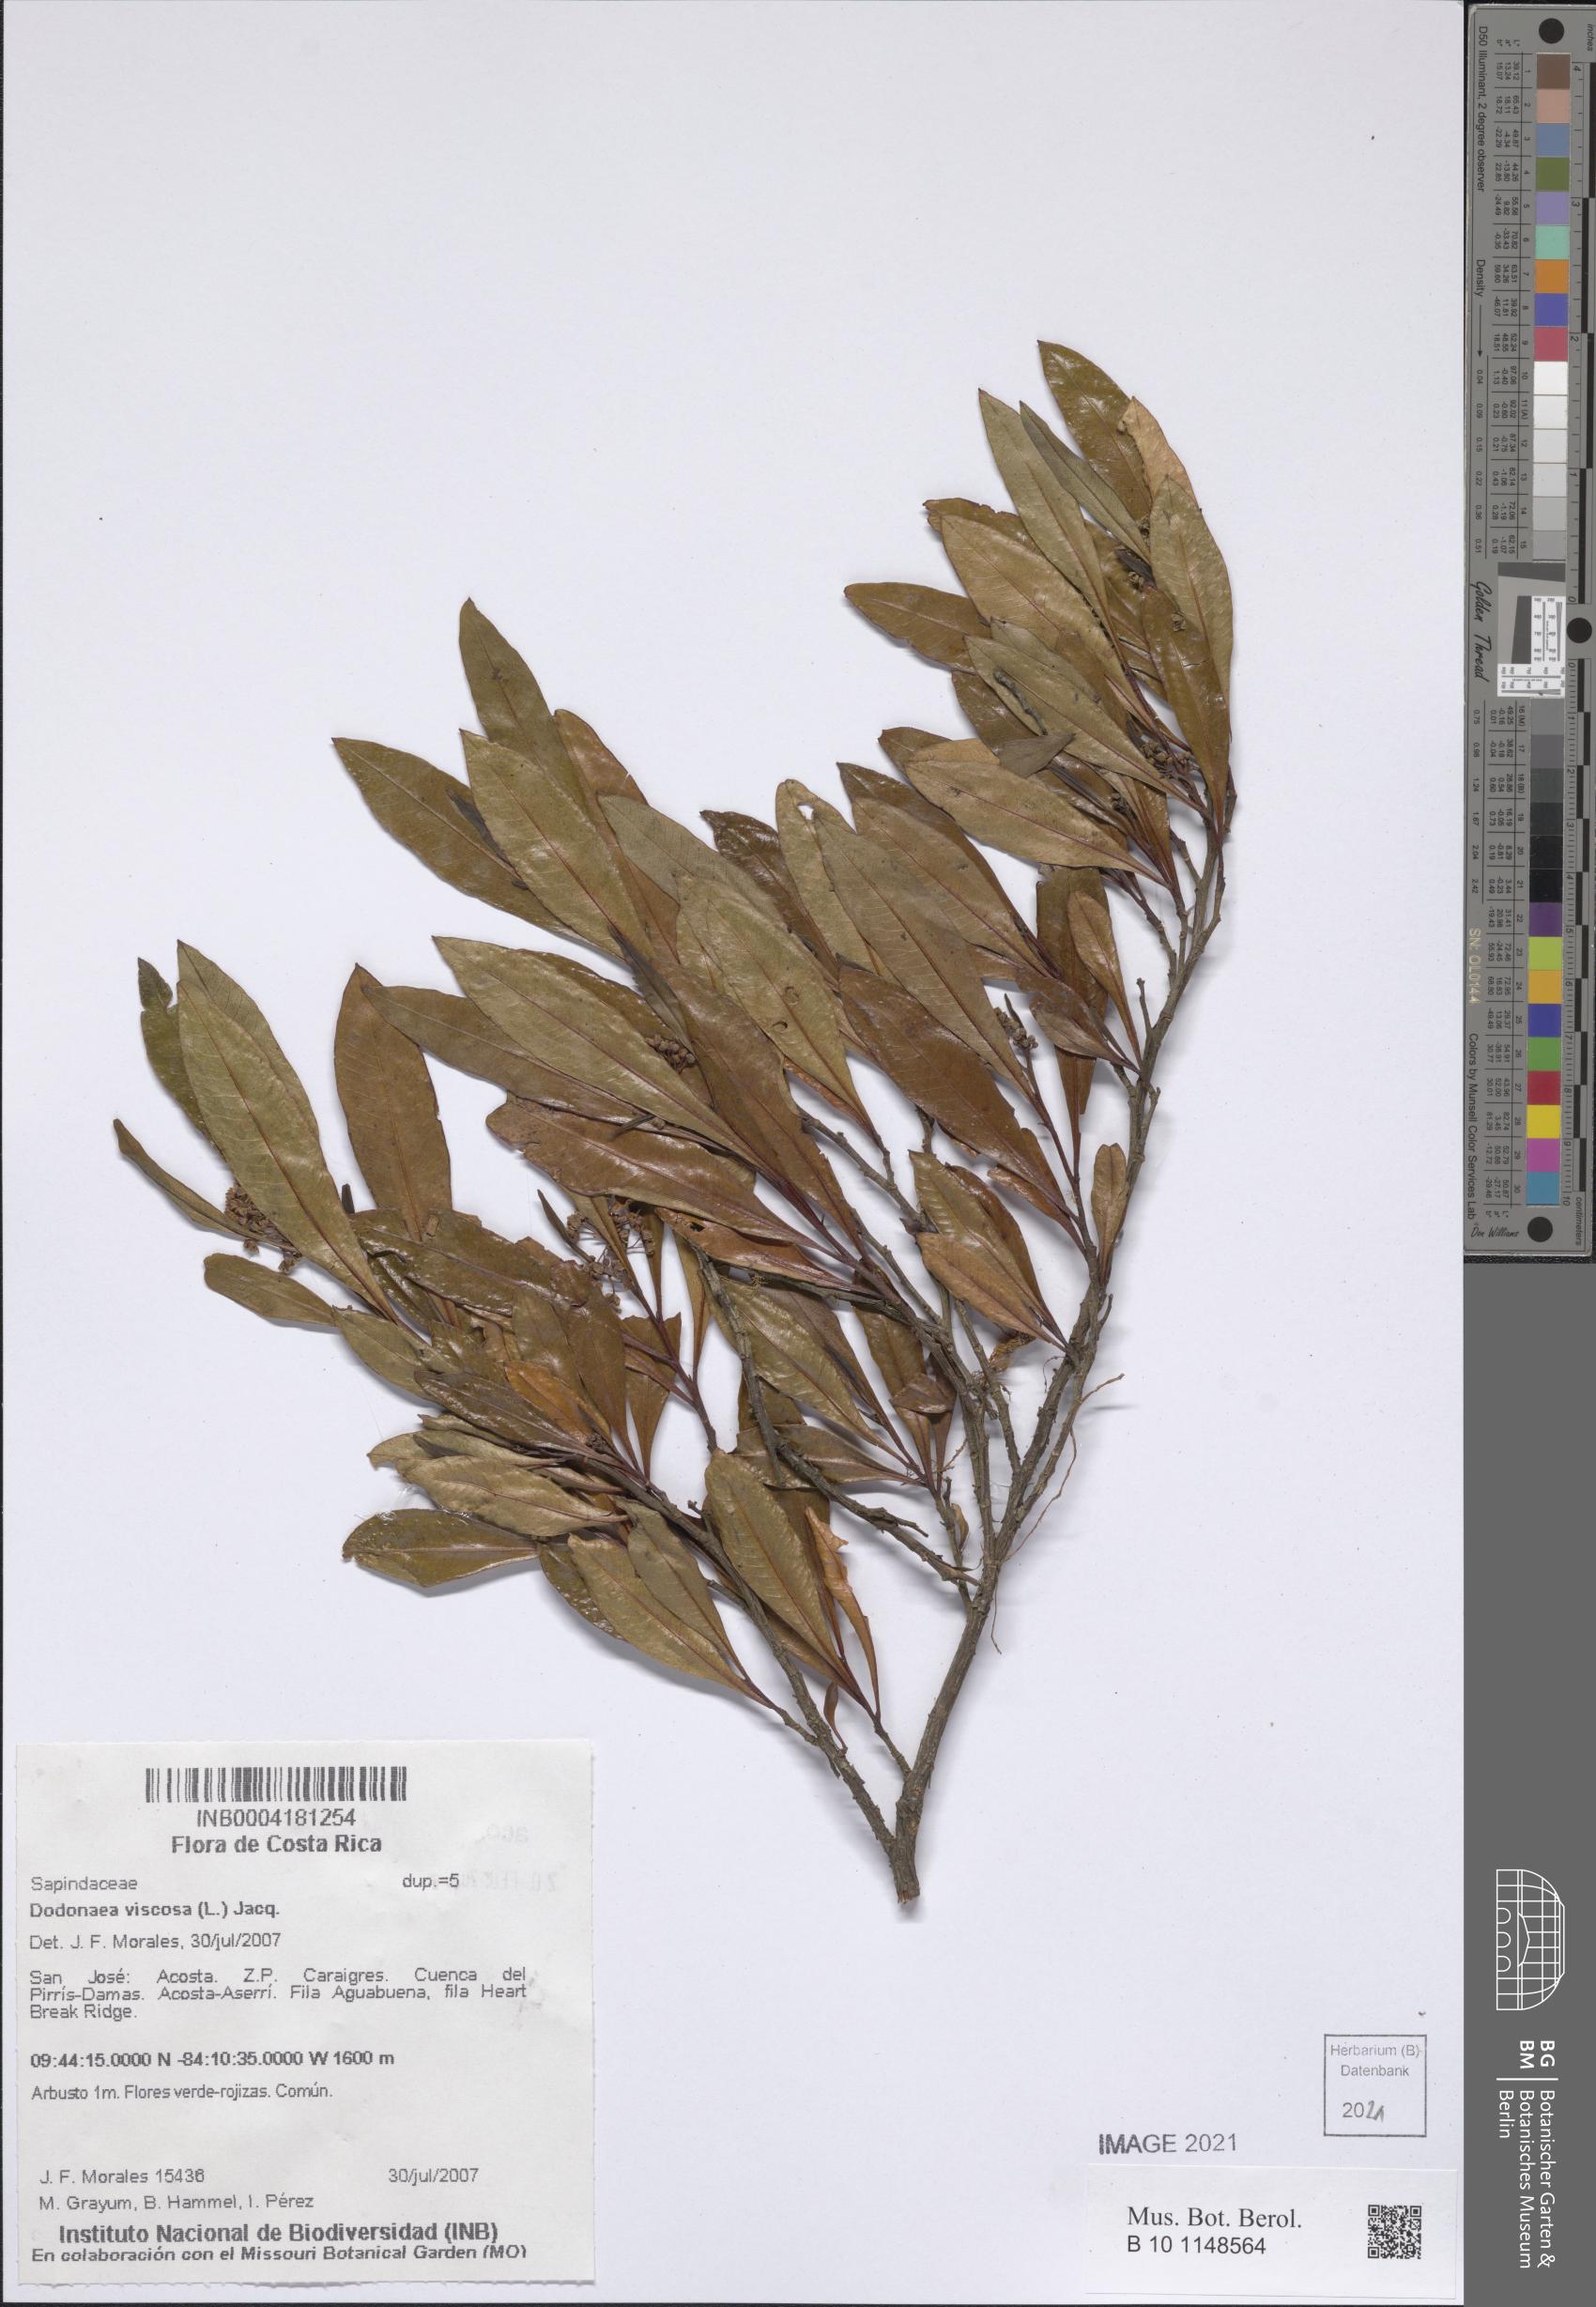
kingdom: Plantae
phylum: Tracheophyta
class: Magnoliopsida
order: Sapindales
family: Sapindaceae
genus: Dodonaea
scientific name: Dodonaea viscosa
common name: Hopbush
